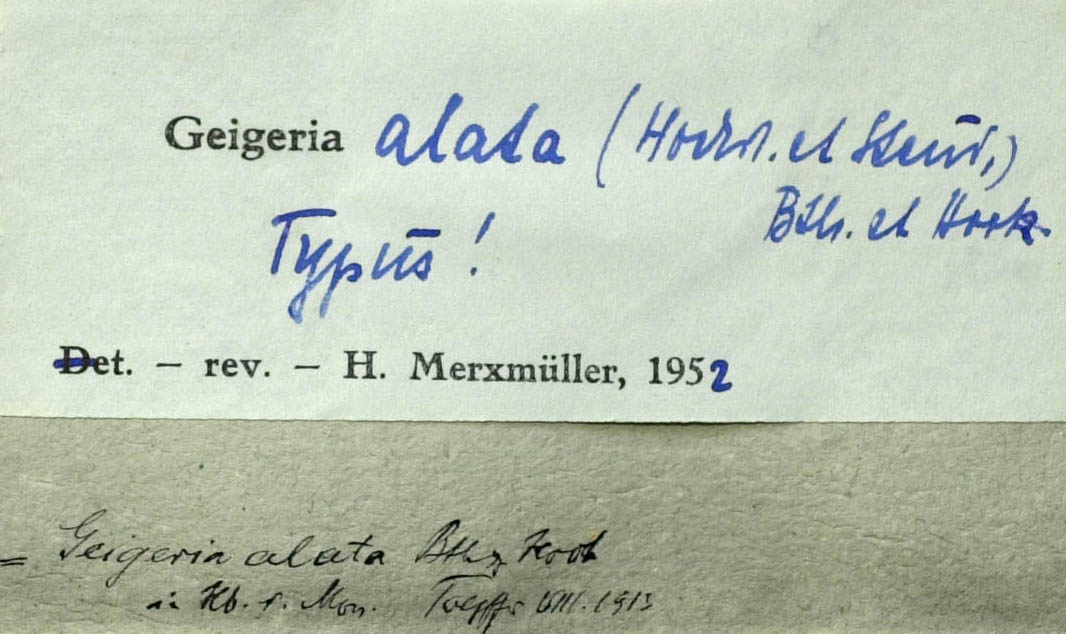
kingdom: Plantae
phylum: Tracheophyta
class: Magnoliopsida
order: Asterales
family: Asteraceae
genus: Geigeria
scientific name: Geigeria alata
